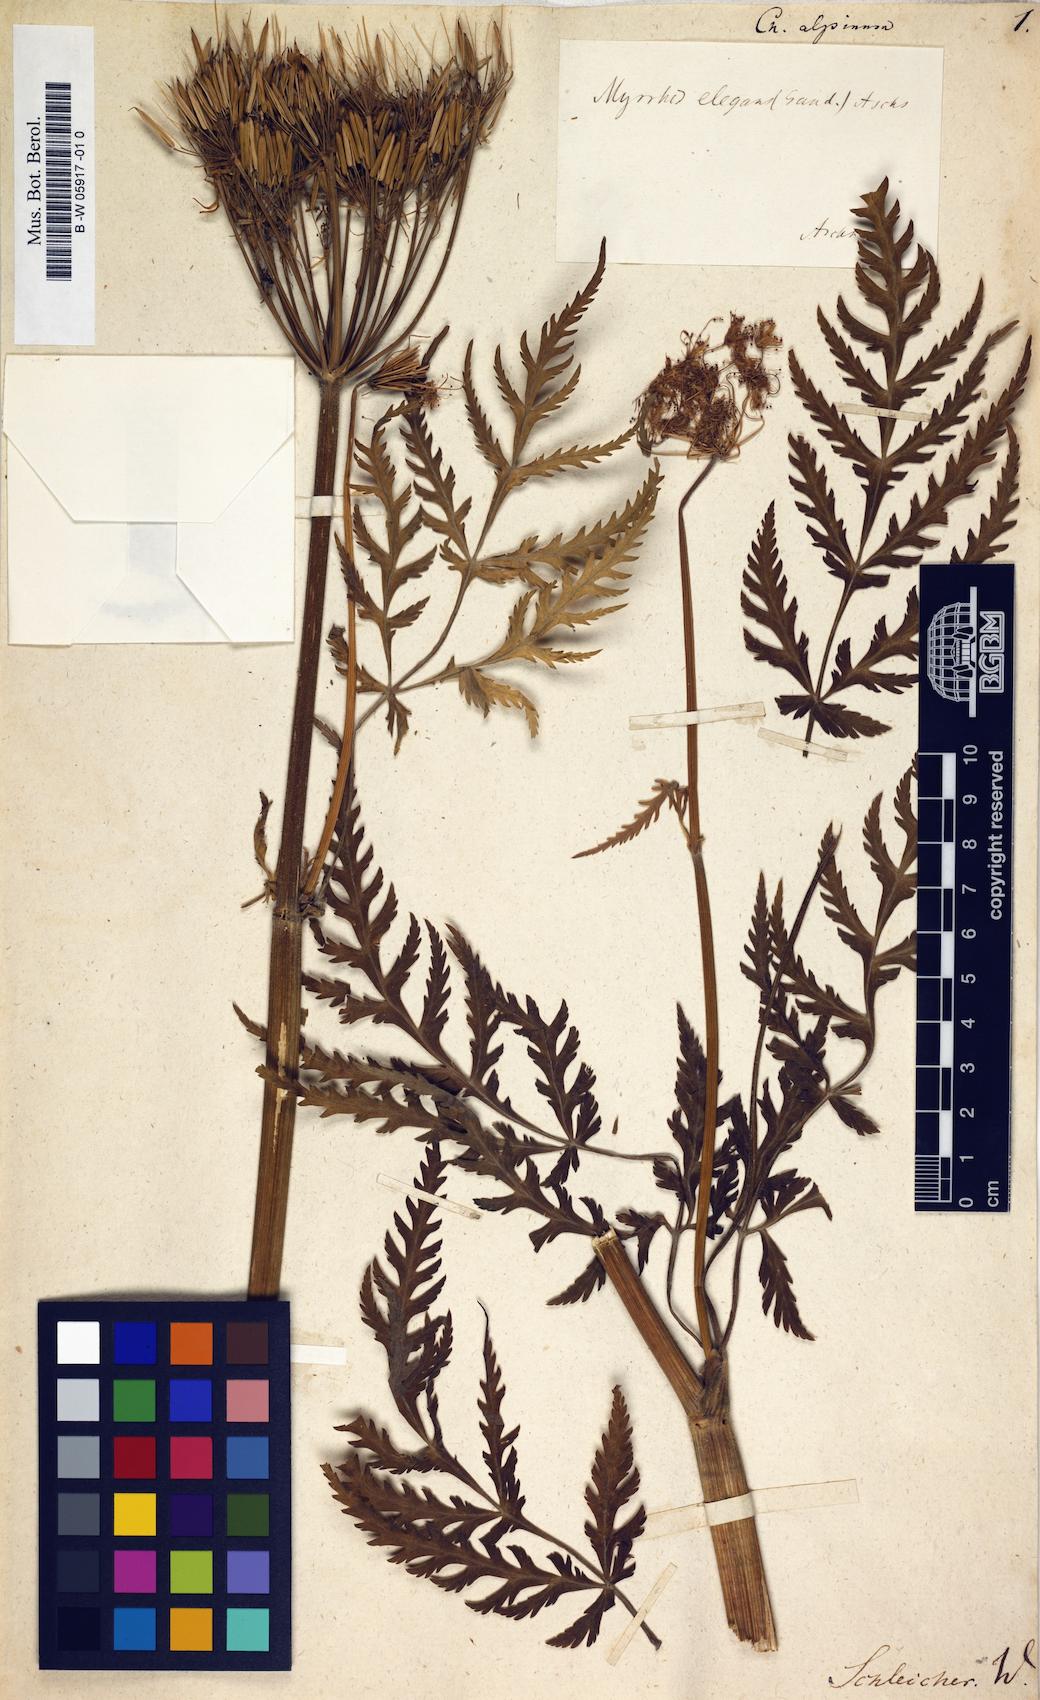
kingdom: Plantae
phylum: Tracheophyta
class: Magnoliopsida
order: Apiales
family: Apiaceae
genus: Anthriscus
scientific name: Anthriscus sylvestris
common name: Cow parsley
